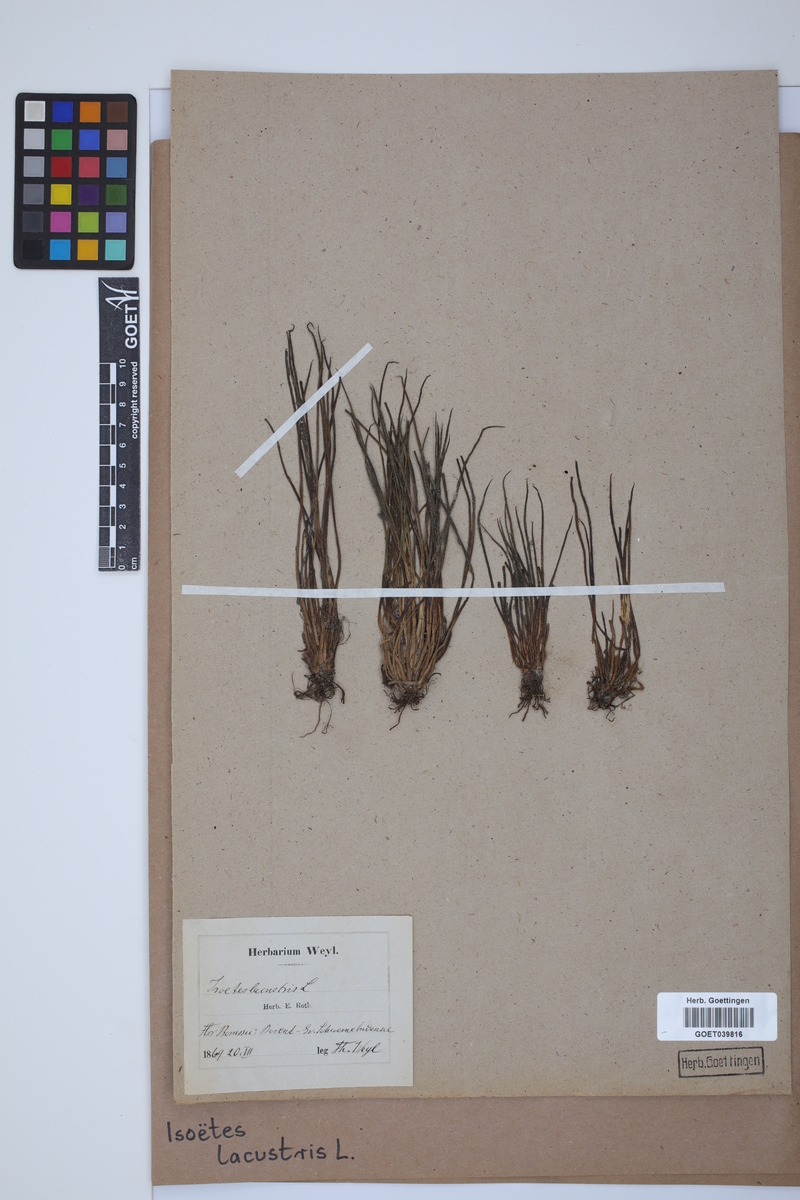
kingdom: Plantae
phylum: Tracheophyta
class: Lycopodiopsida
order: Isoetales
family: Isoetaceae
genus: Isoetes
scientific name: Isoetes lacustris
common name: Common quillwort
